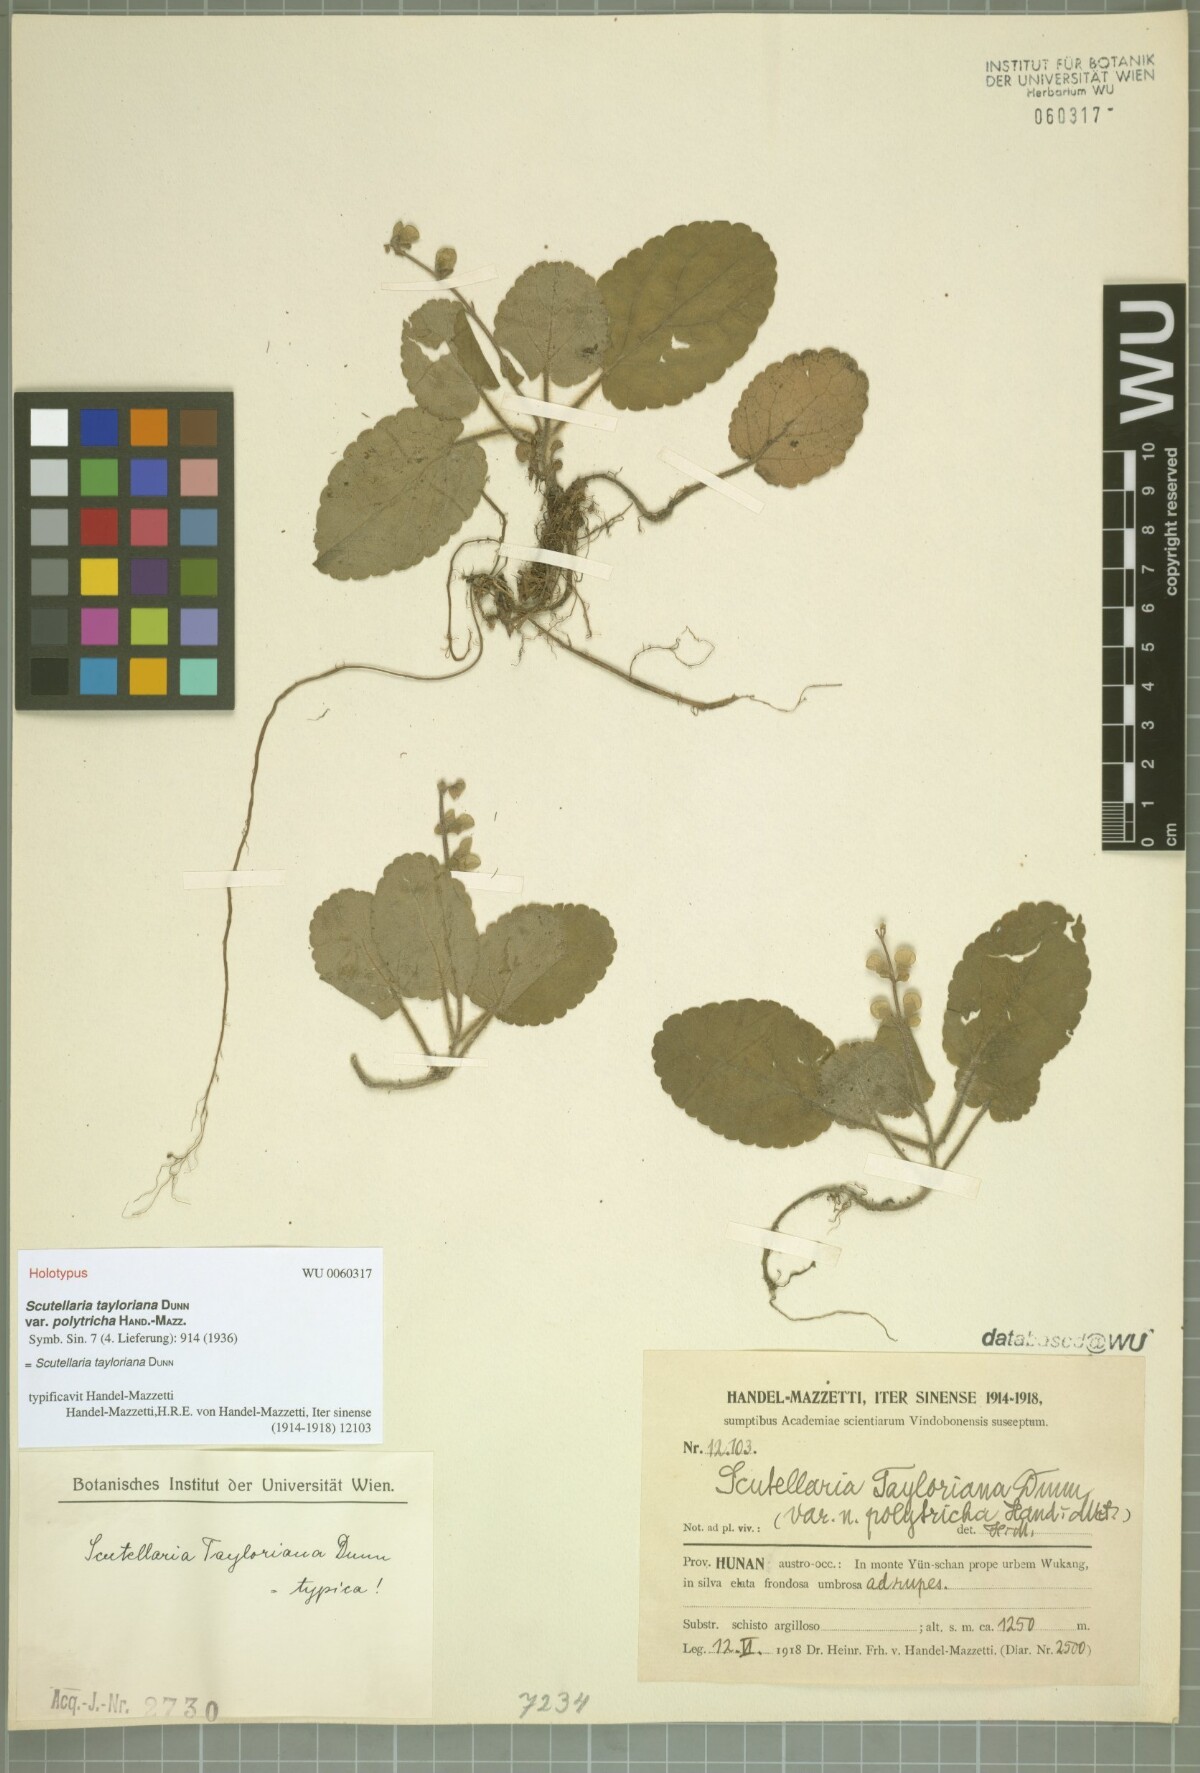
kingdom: Plantae
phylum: Tracheophyta
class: Magnoliopsida
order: Lamiales
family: Lamiaceae
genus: Scutellaria
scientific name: Scutellaria tayloriana
